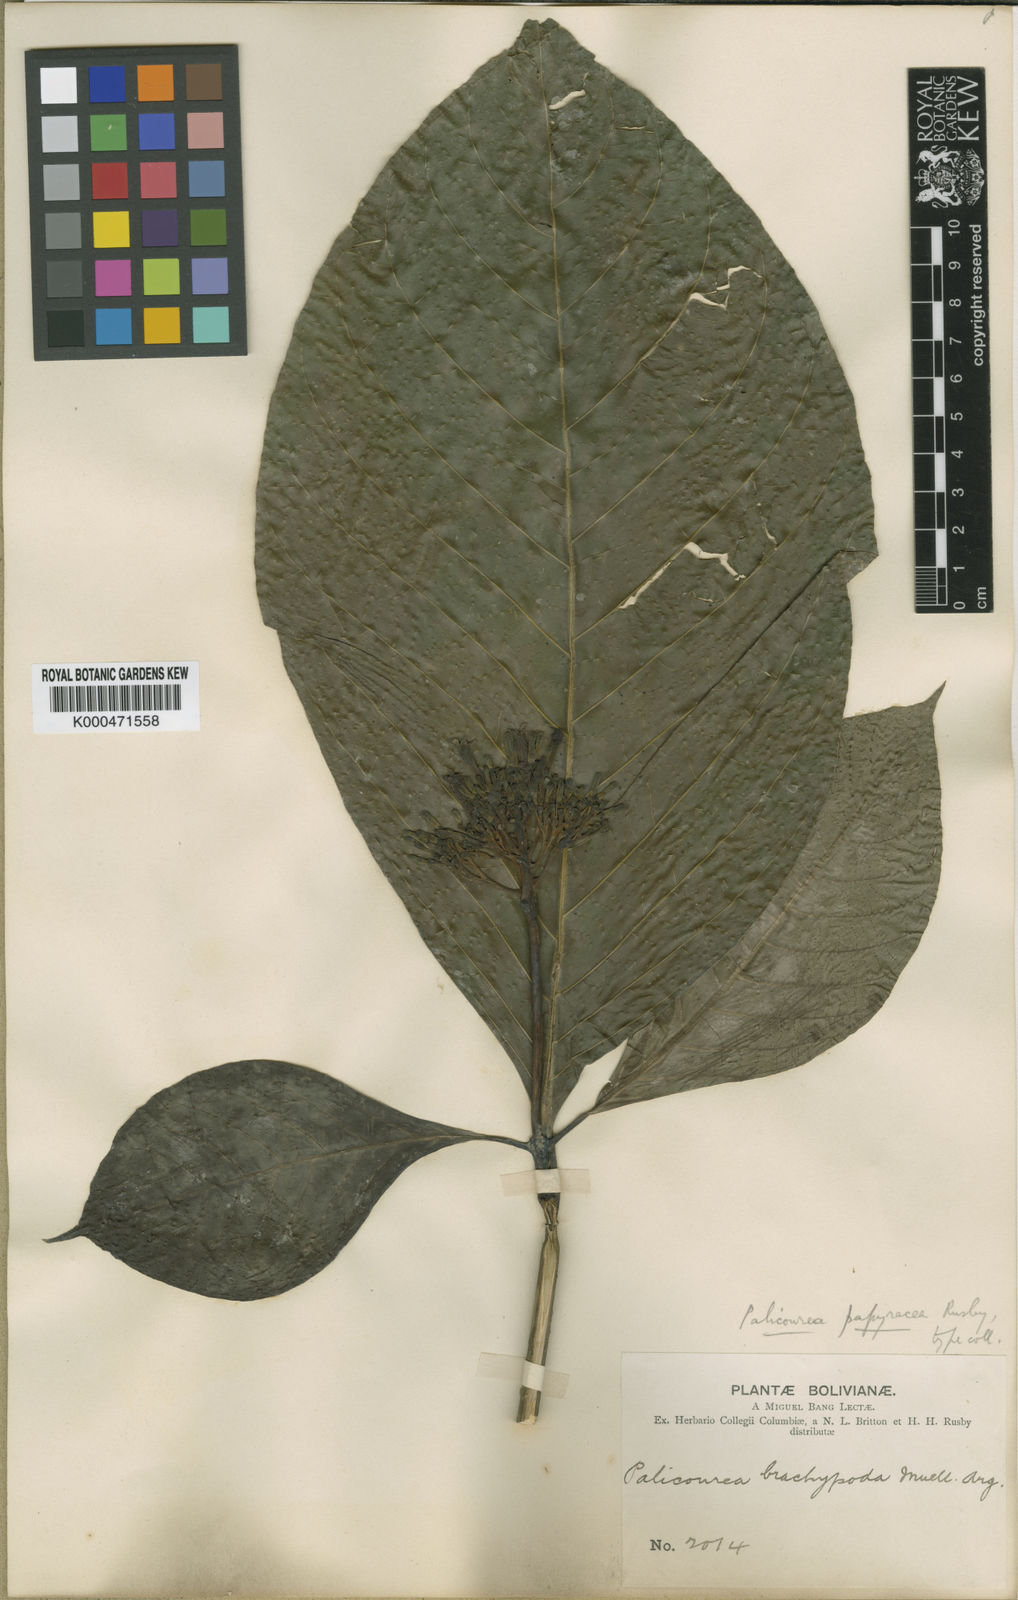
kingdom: Plantae
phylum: Tracheophyta
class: Magnoliopsida
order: Gentianales
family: Rubiaceae
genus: Palicourea
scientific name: Palicourea grandiflora
